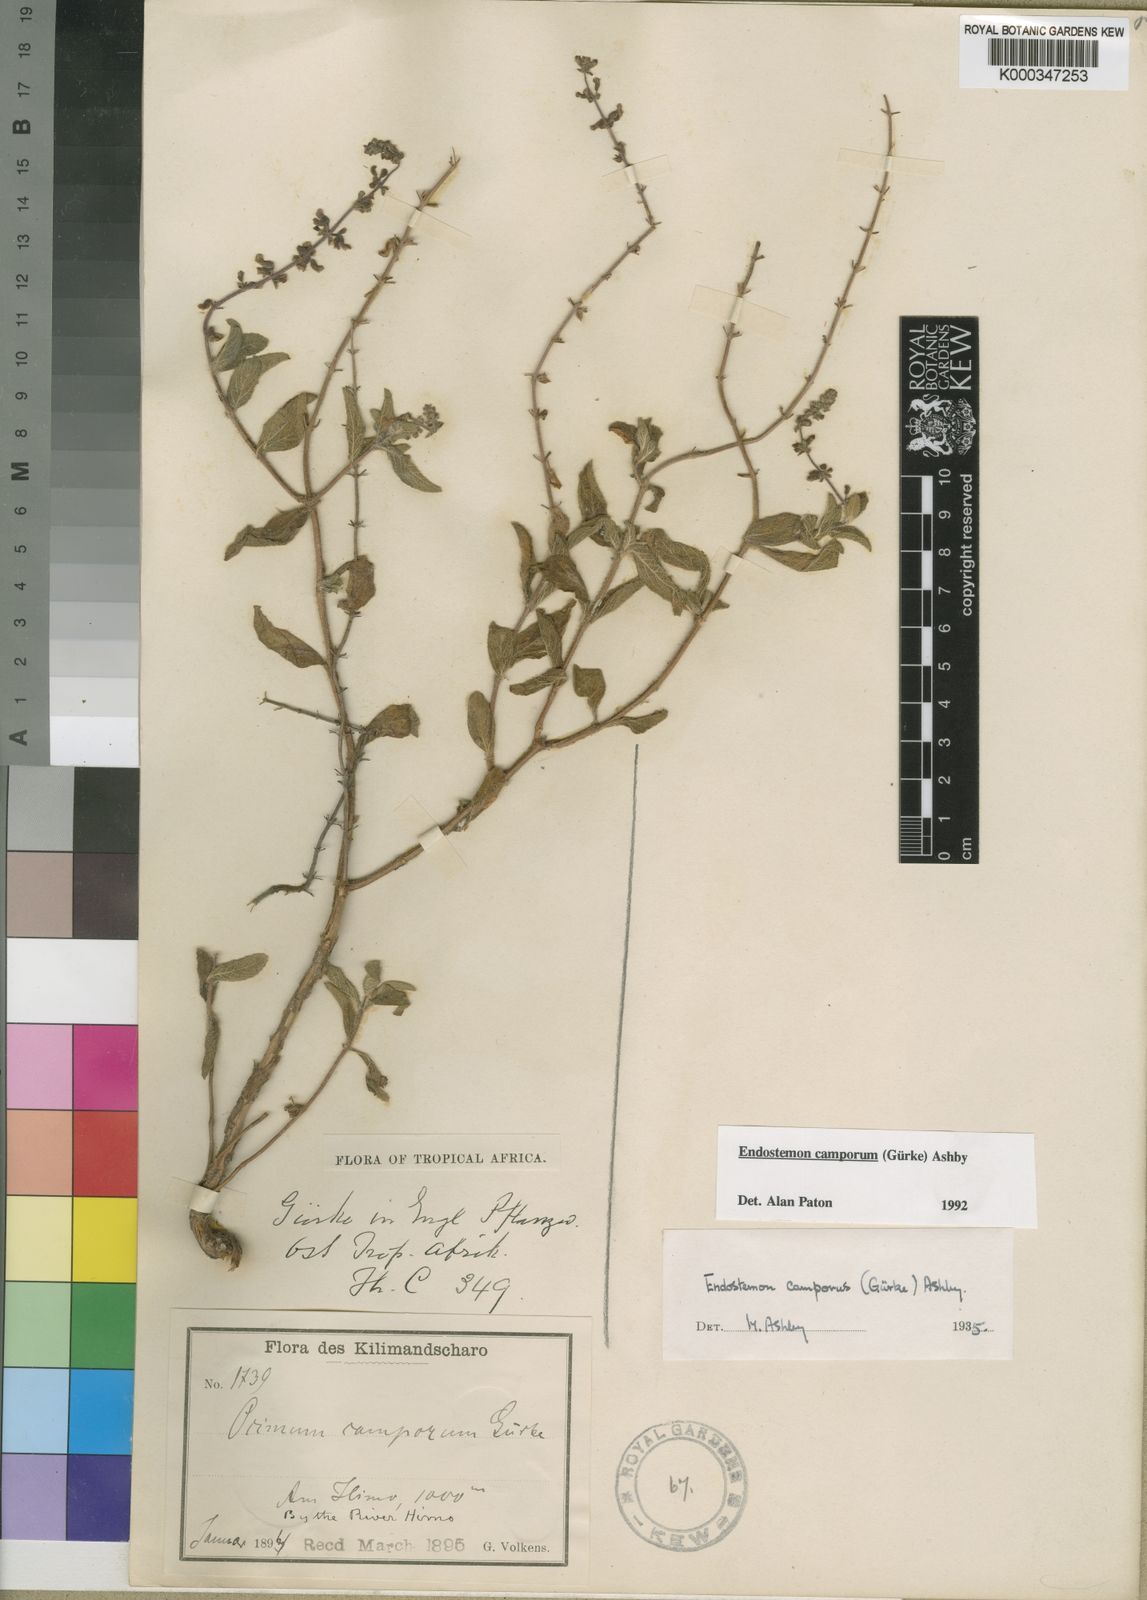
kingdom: Plantae
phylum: Tracheophyta
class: Magnoliopsida
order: Lamiales
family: Lamiaceae
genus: Endostemon
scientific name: Endostemon
